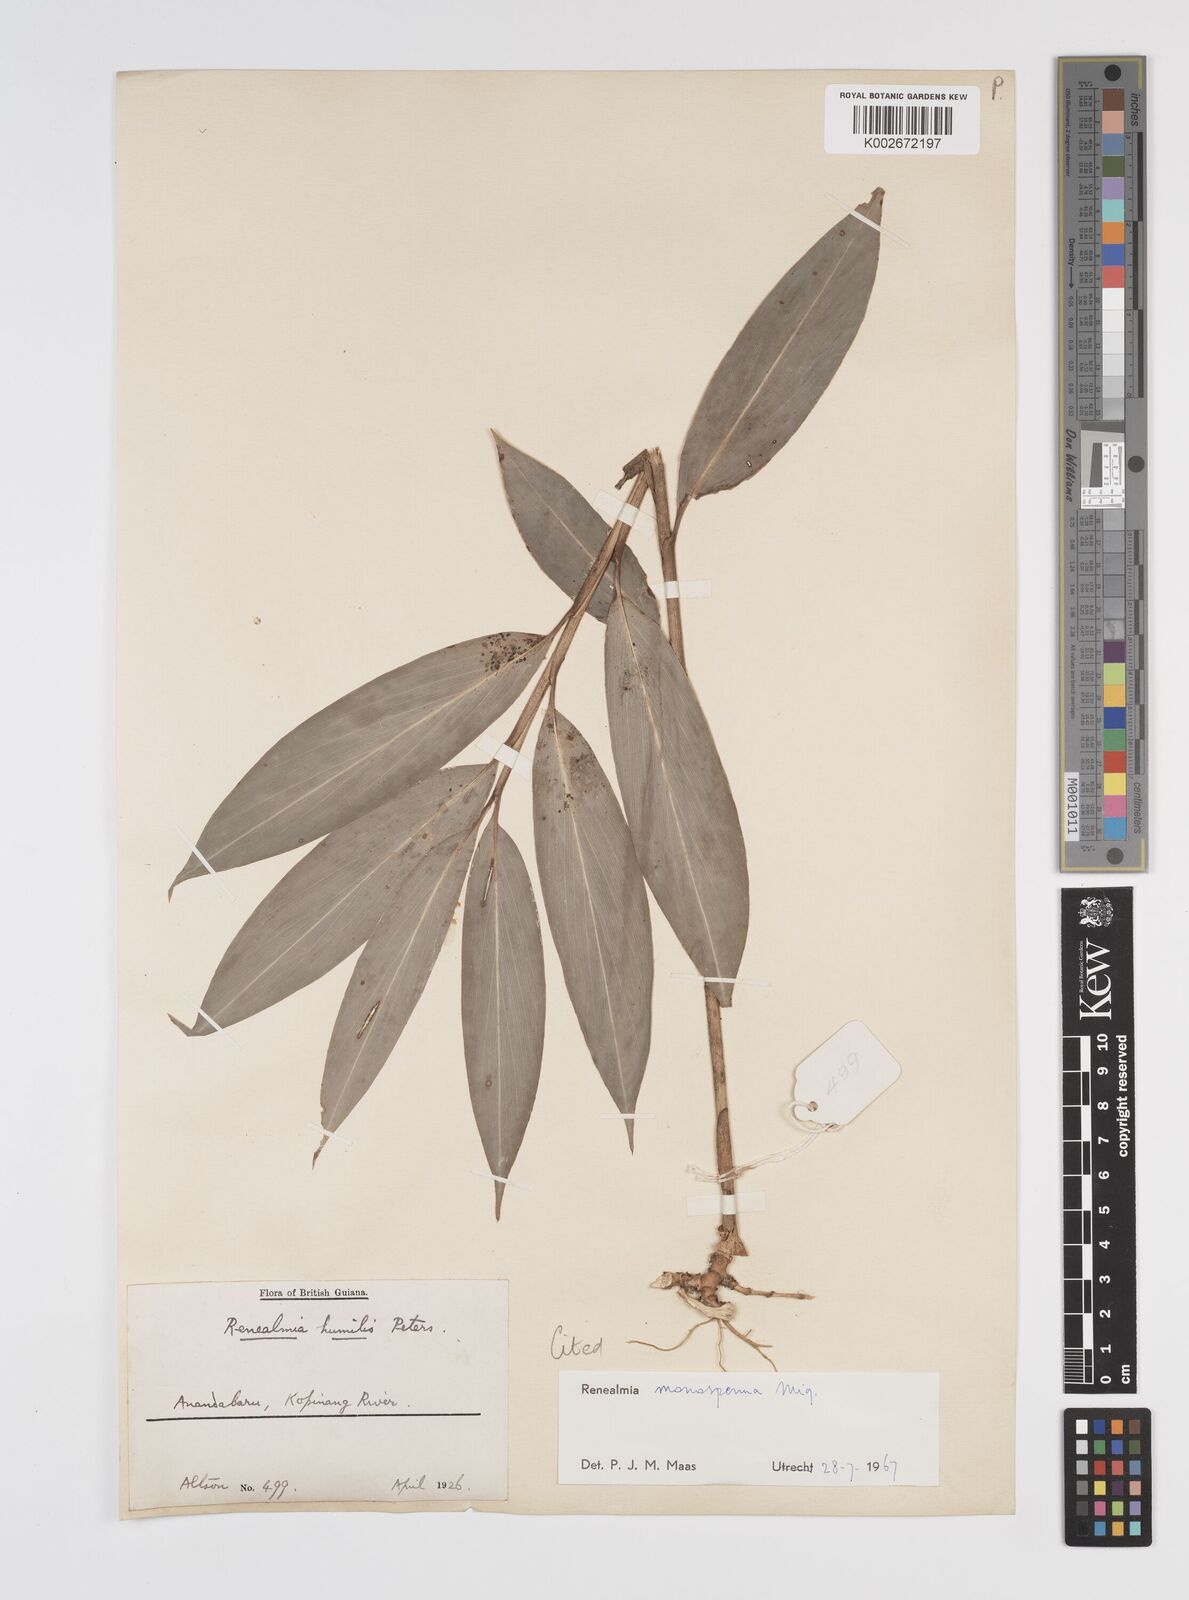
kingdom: Plantae
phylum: Tracheophyta
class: Liliopsida
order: Zingiberales
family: Zingiberaceae
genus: Renealmia
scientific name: Renealmia monosperma
